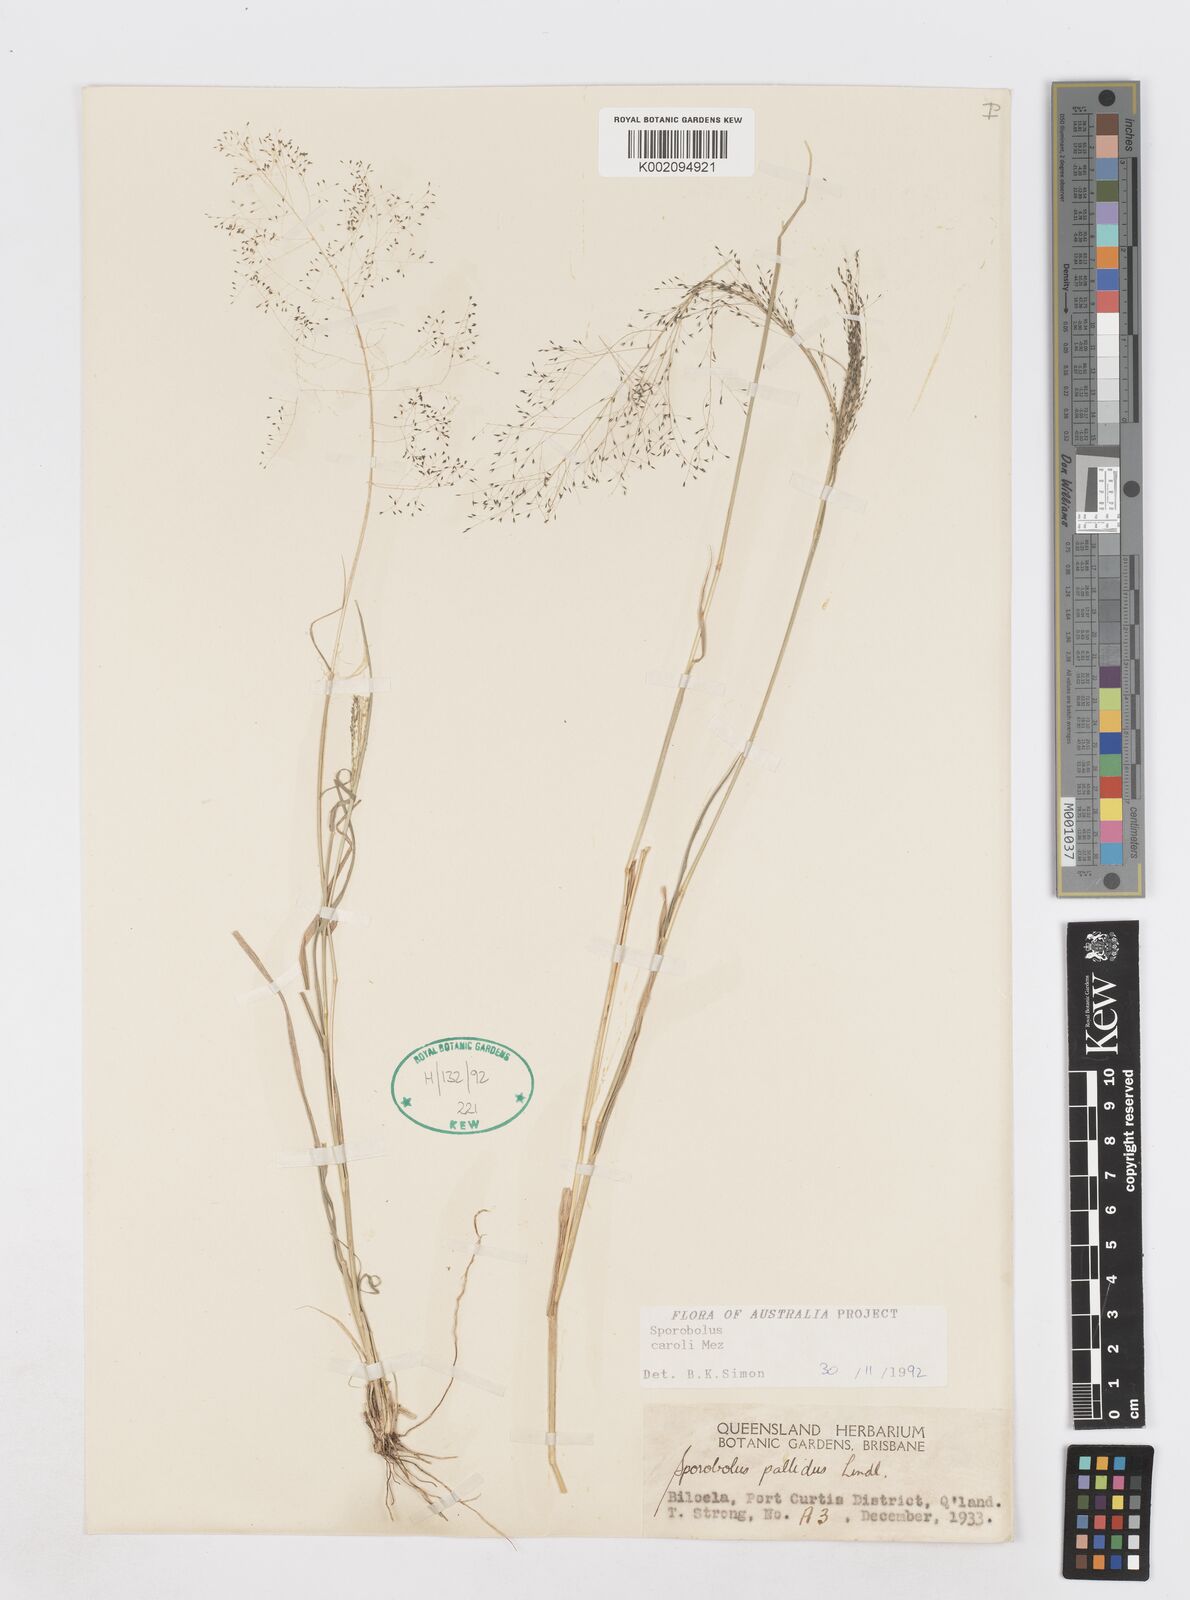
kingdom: Plantae
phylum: Tracheophyta
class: Liliopsida
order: Poales
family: Poaceae
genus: Sporobolus
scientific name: Sporobolus caroli
